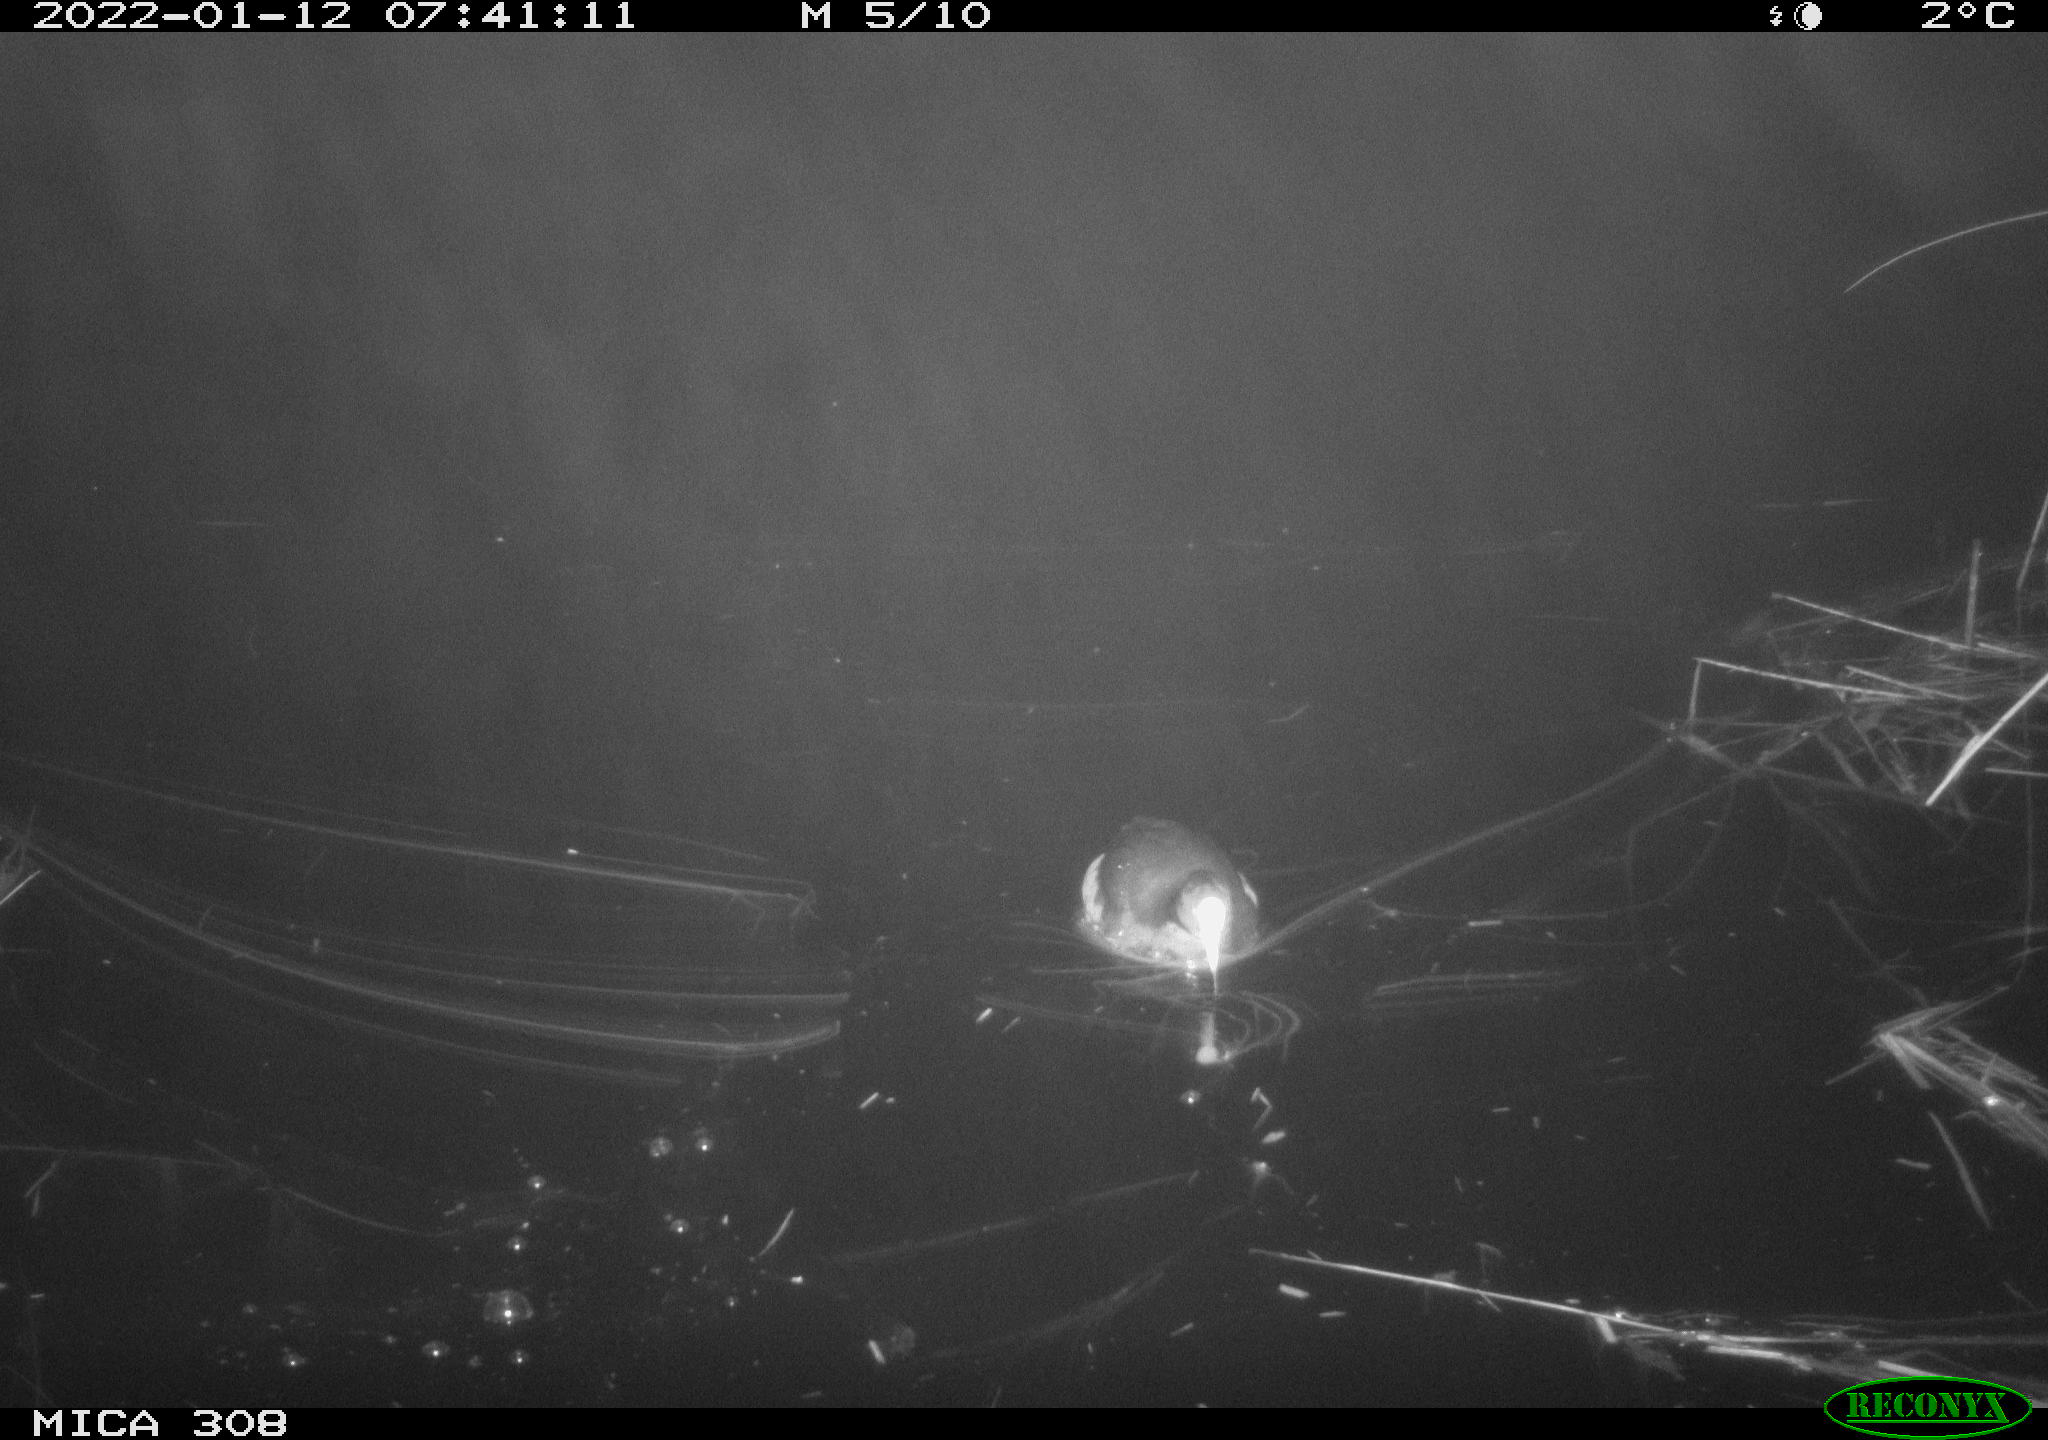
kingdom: Animalia
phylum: Chordata
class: Aves
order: Gruiformes
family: Rallidae
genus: Fulica
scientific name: Fulica atra
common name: Eurasian coot
